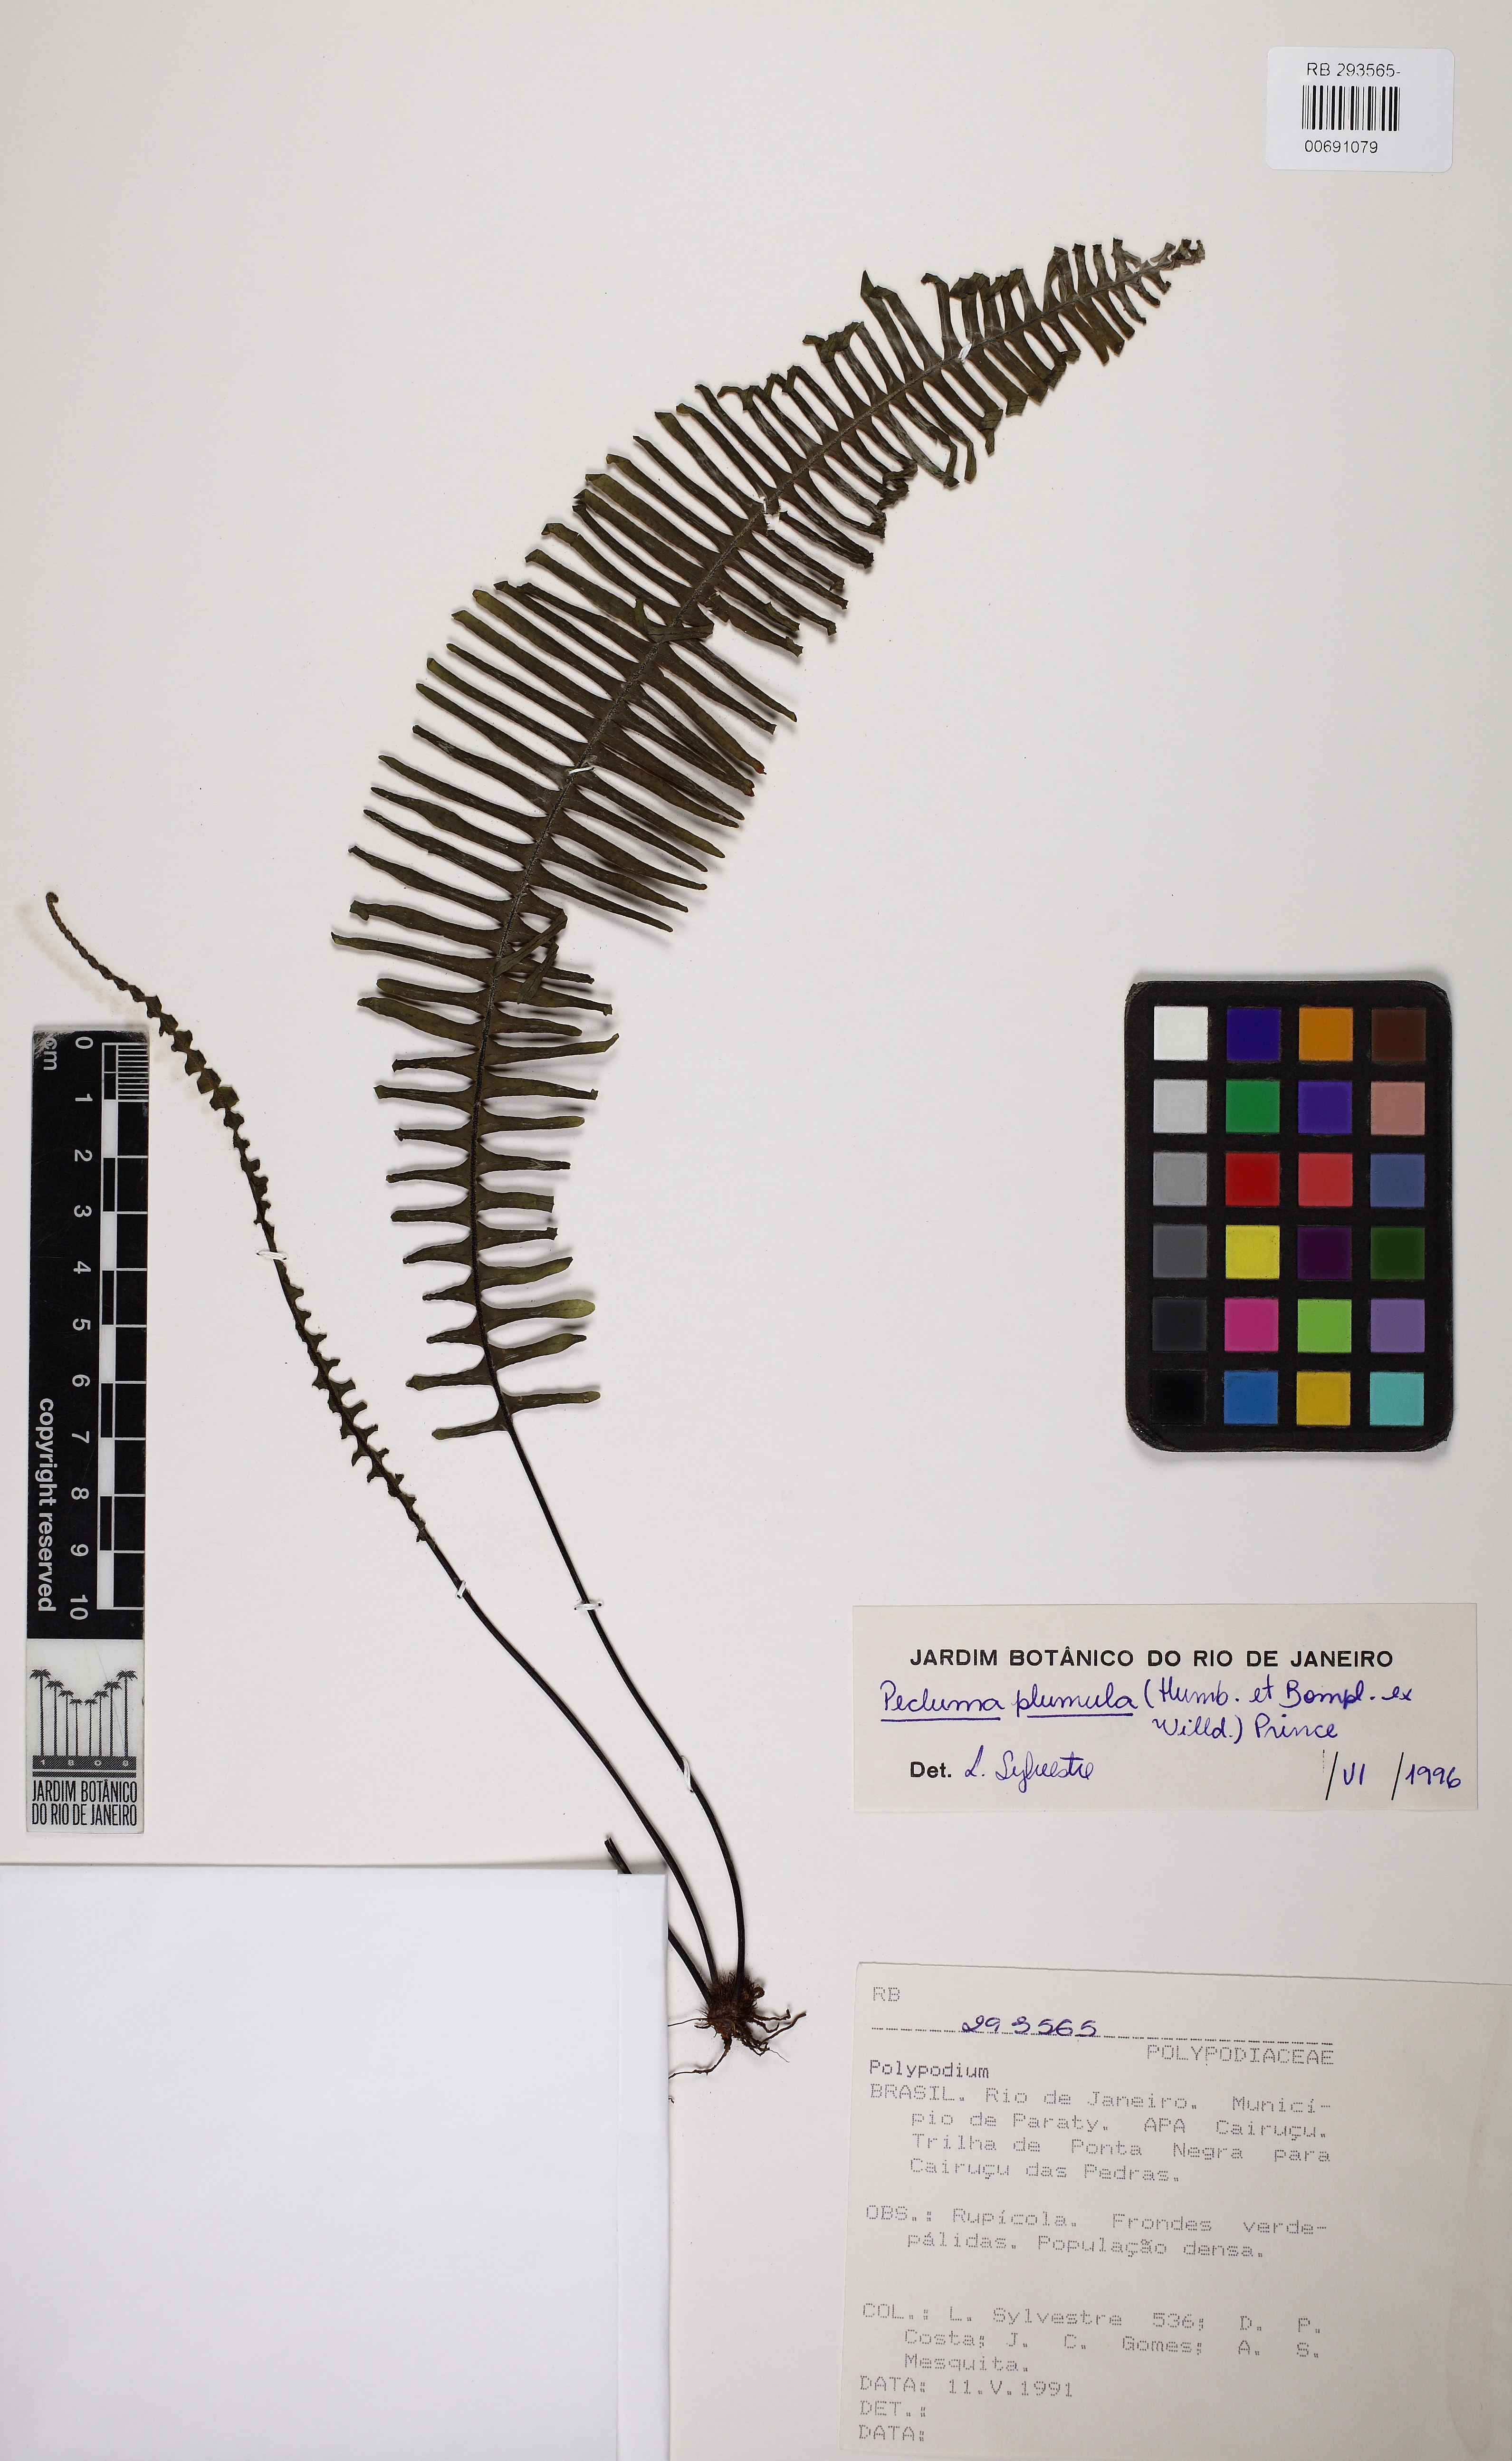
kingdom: Plantae
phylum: Tracheophyta
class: Polypodiopsida
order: Polypodiales
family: Polypodiaceae
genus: Pecluma
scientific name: Pecluma plumula
